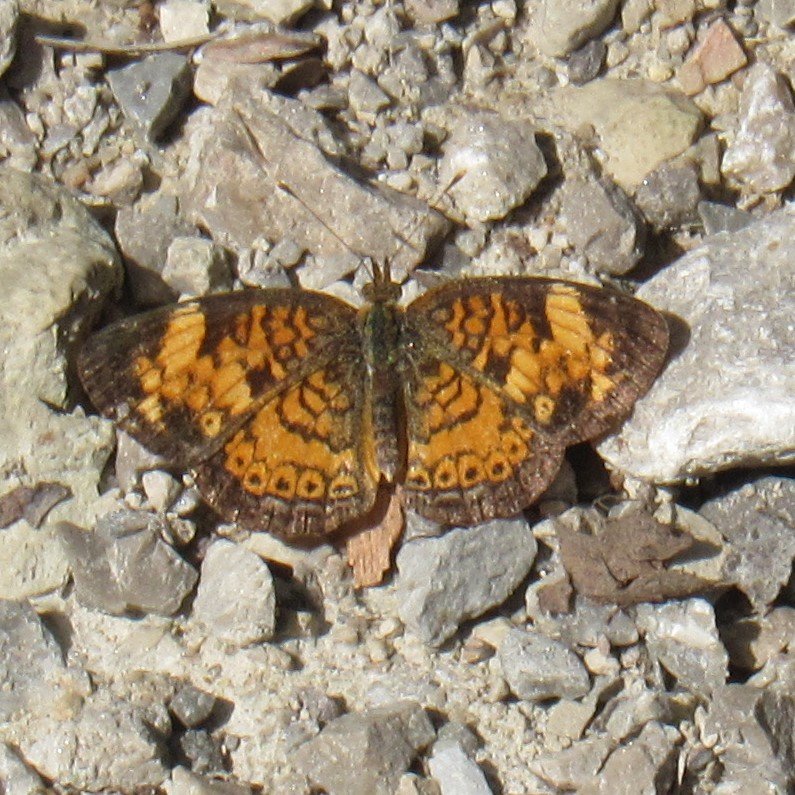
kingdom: Animalia
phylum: Arthropoda
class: Insecta
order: Lepidoptera
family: Nymphalidae
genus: Phyciodes
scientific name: Phyciodes tharos
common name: Pearl Crescent
